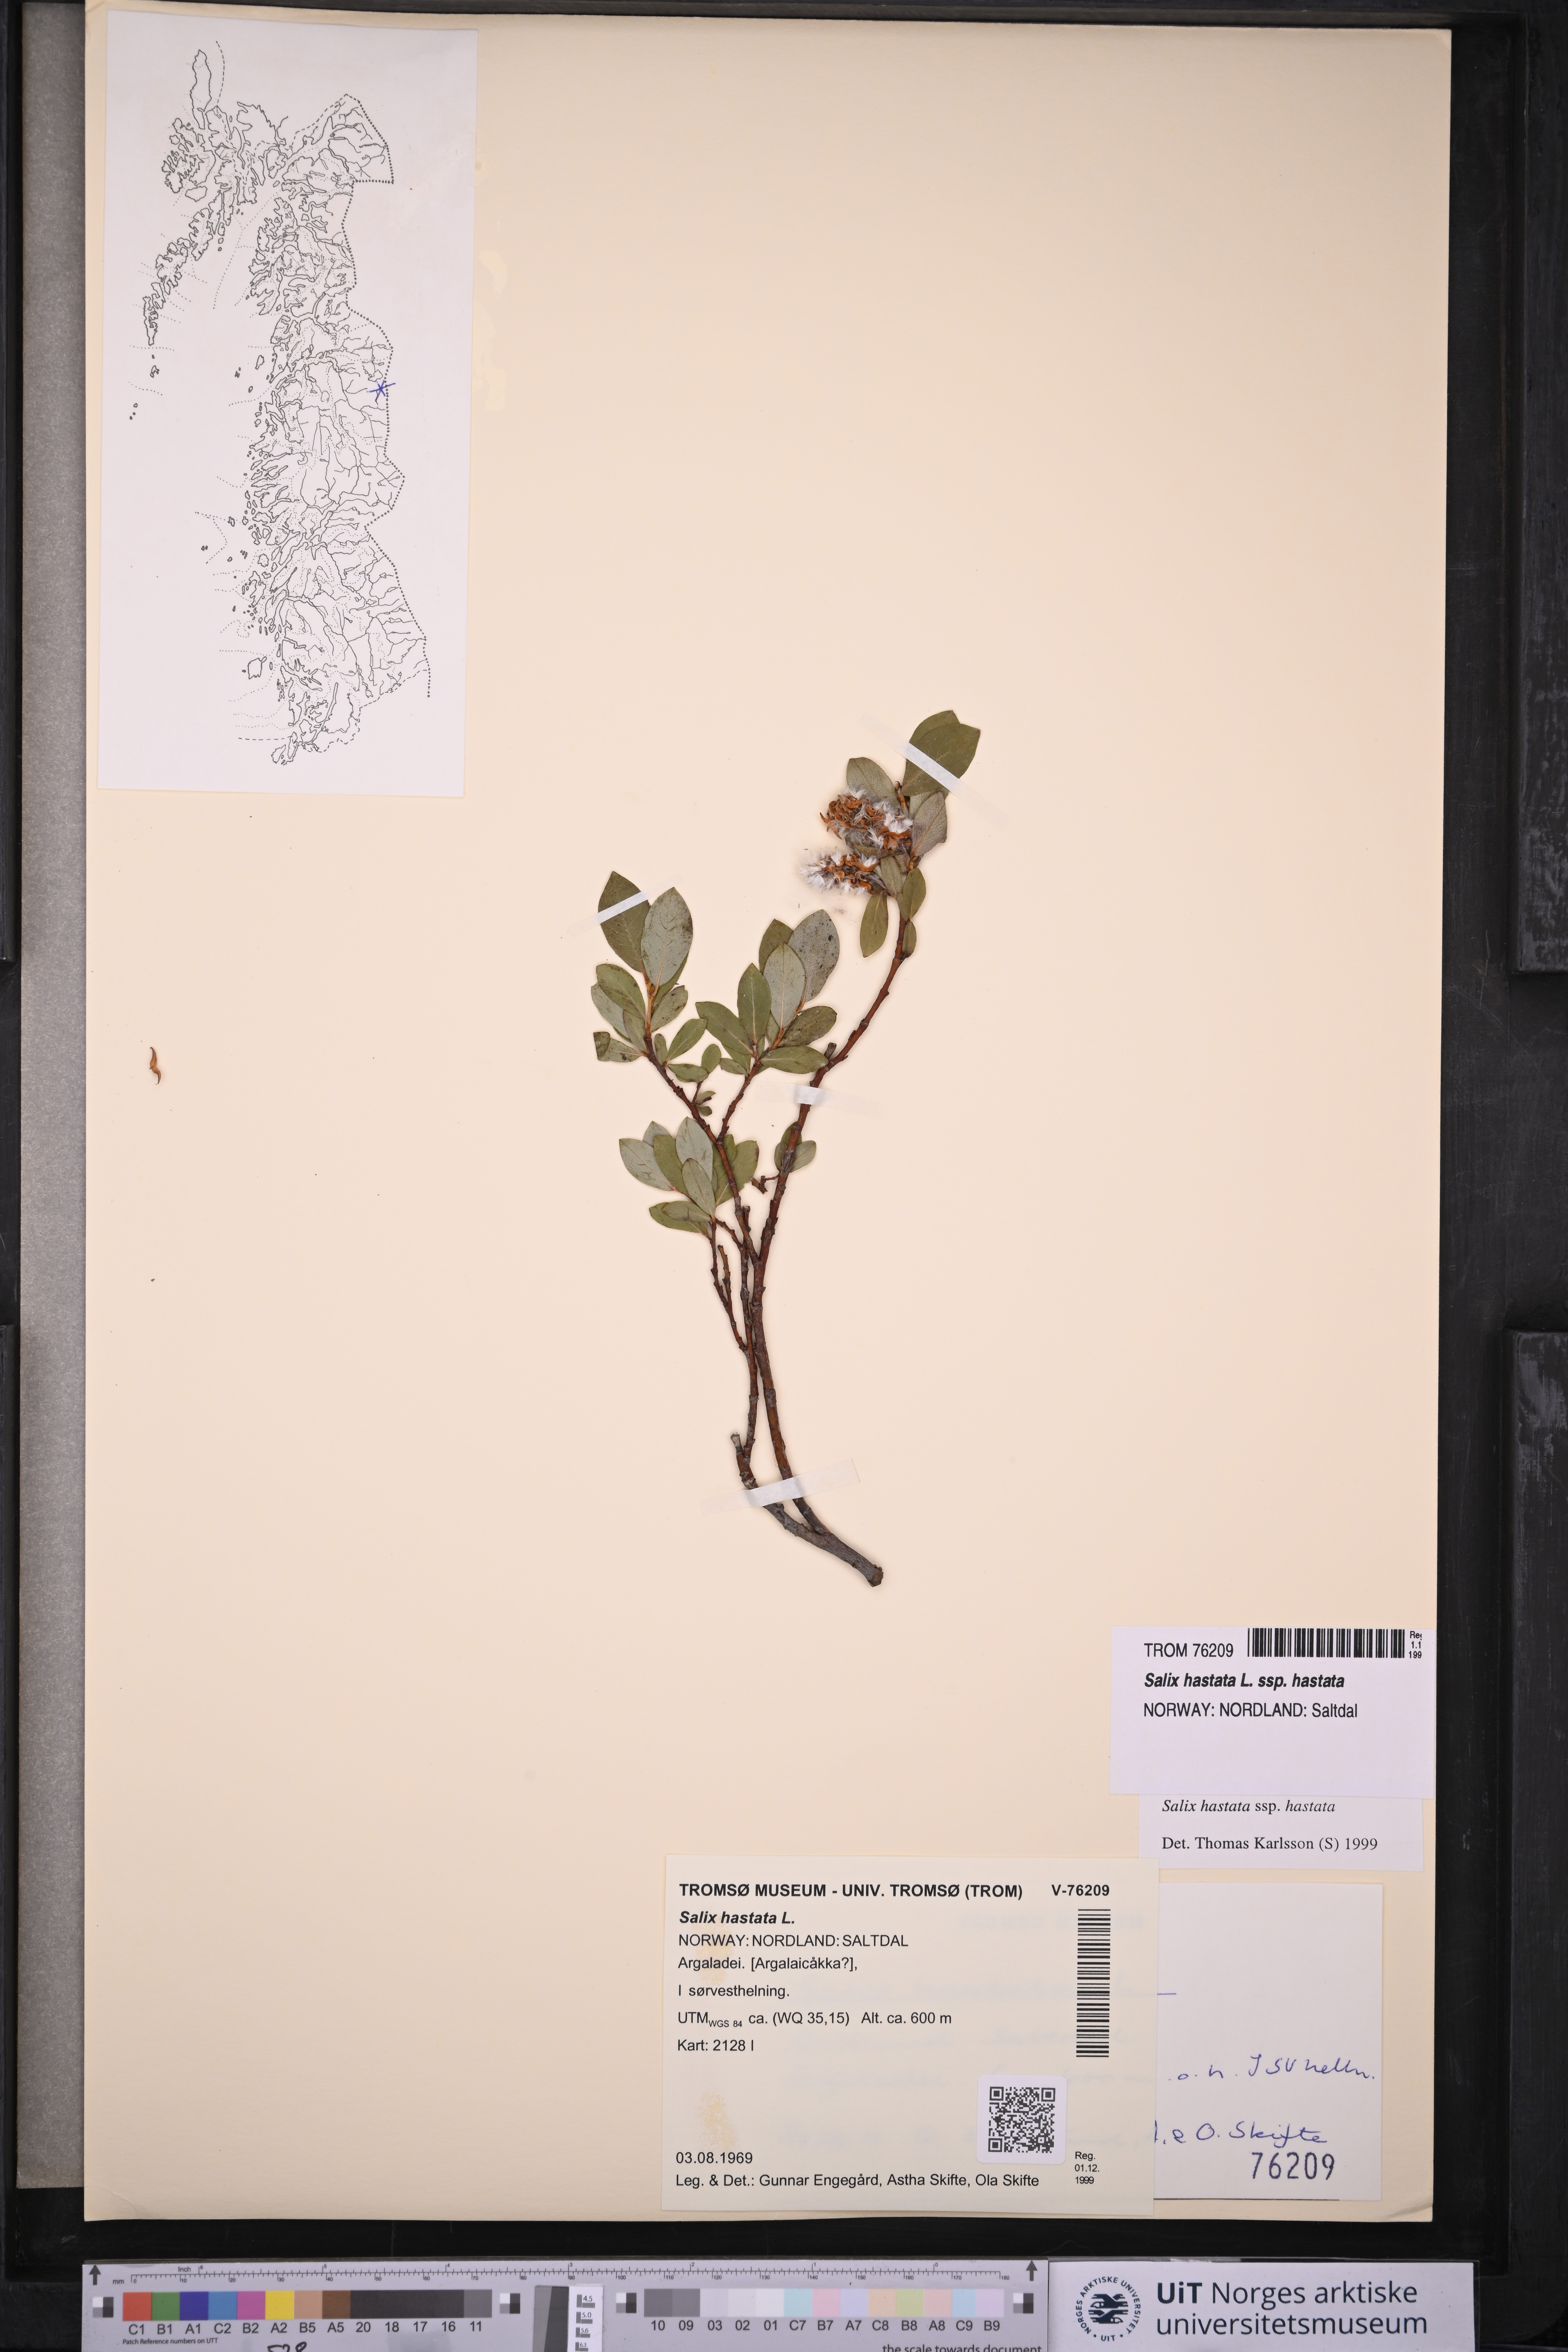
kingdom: Plantae
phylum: Tracheophyta
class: Magnoliopsida
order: Malpighiales
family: Salicaceae
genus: Salix
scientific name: Salix hastata
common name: Halberd willow
